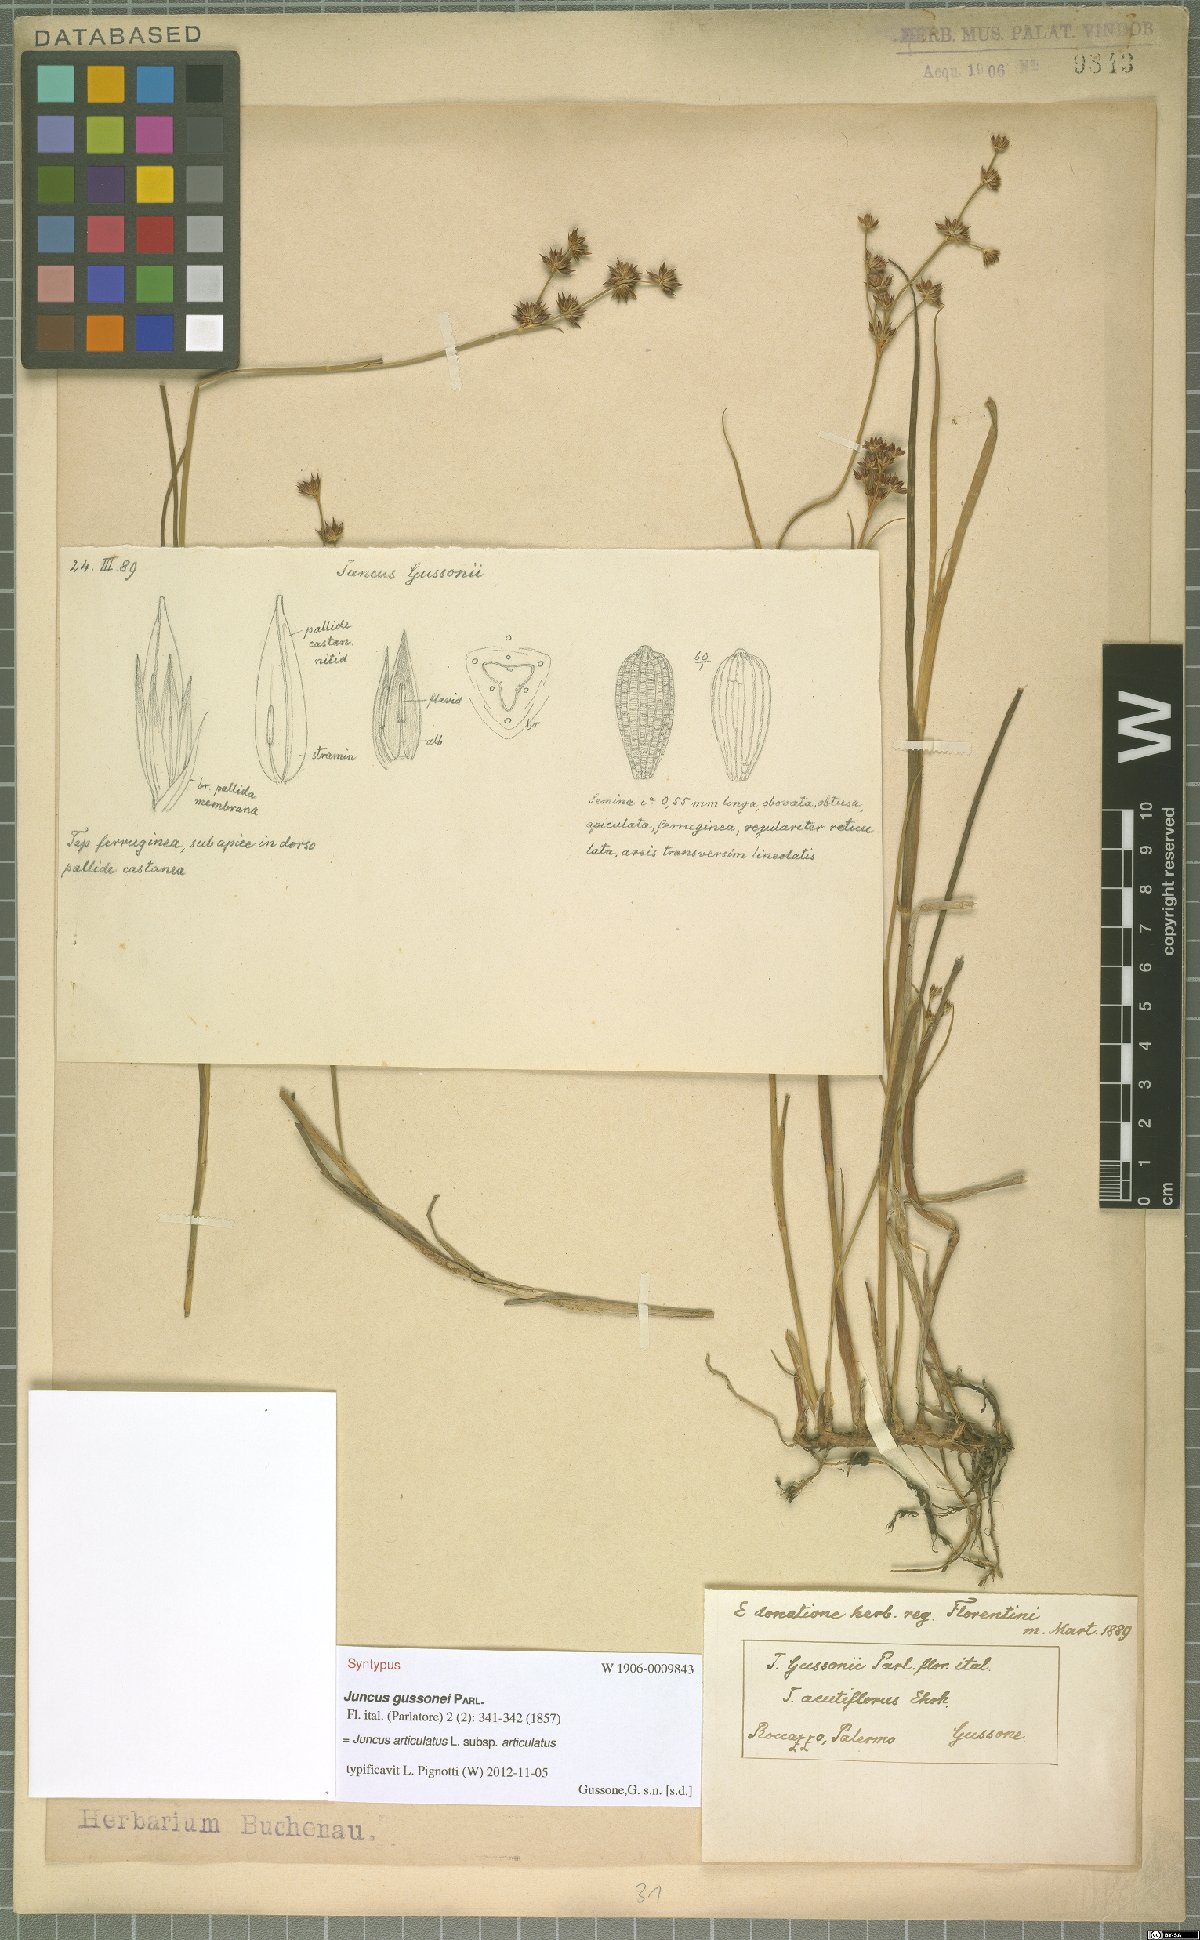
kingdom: Plantae
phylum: Tracheophyta
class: Liliopsida
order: Poales
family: Juncaceae
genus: Juncus
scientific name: Juncus articulatus
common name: Jointed rush
